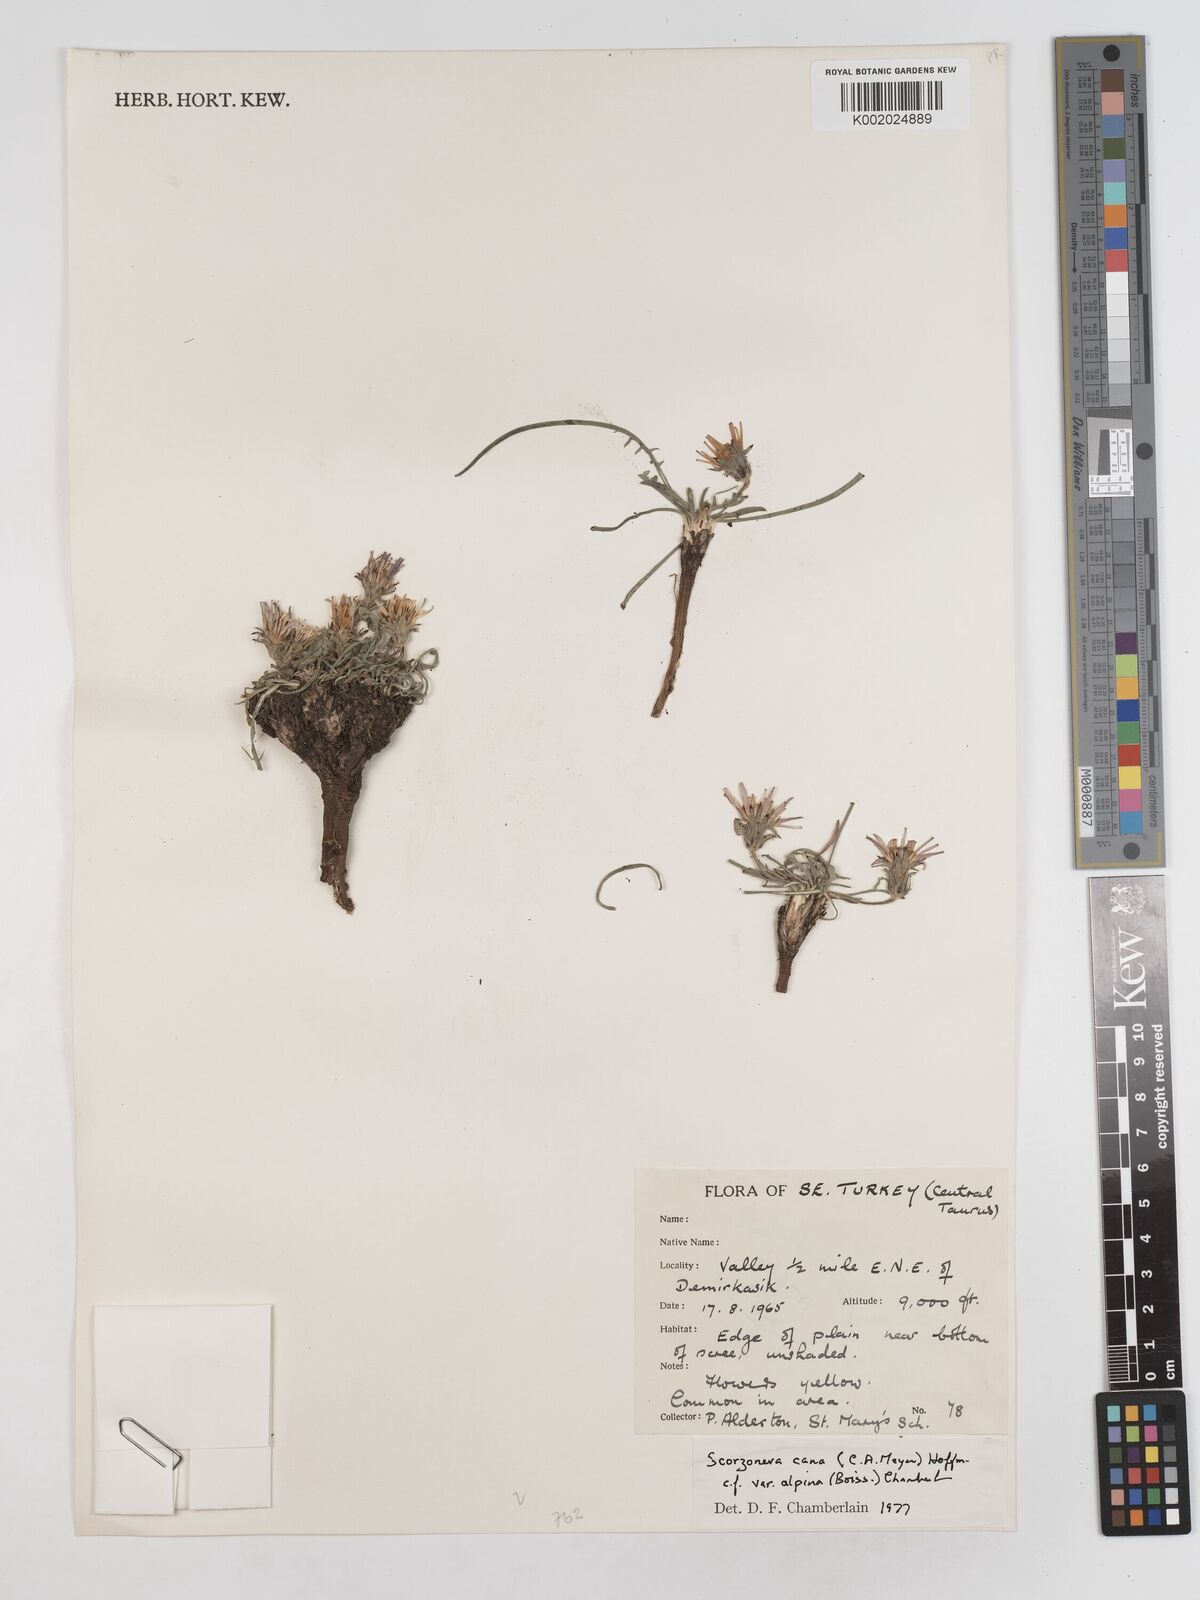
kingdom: Plantae
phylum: Tracheophyta
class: Magnoliopsida
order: Asterales
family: Asteraceae
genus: Scorzonera
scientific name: Scorzonera cana
